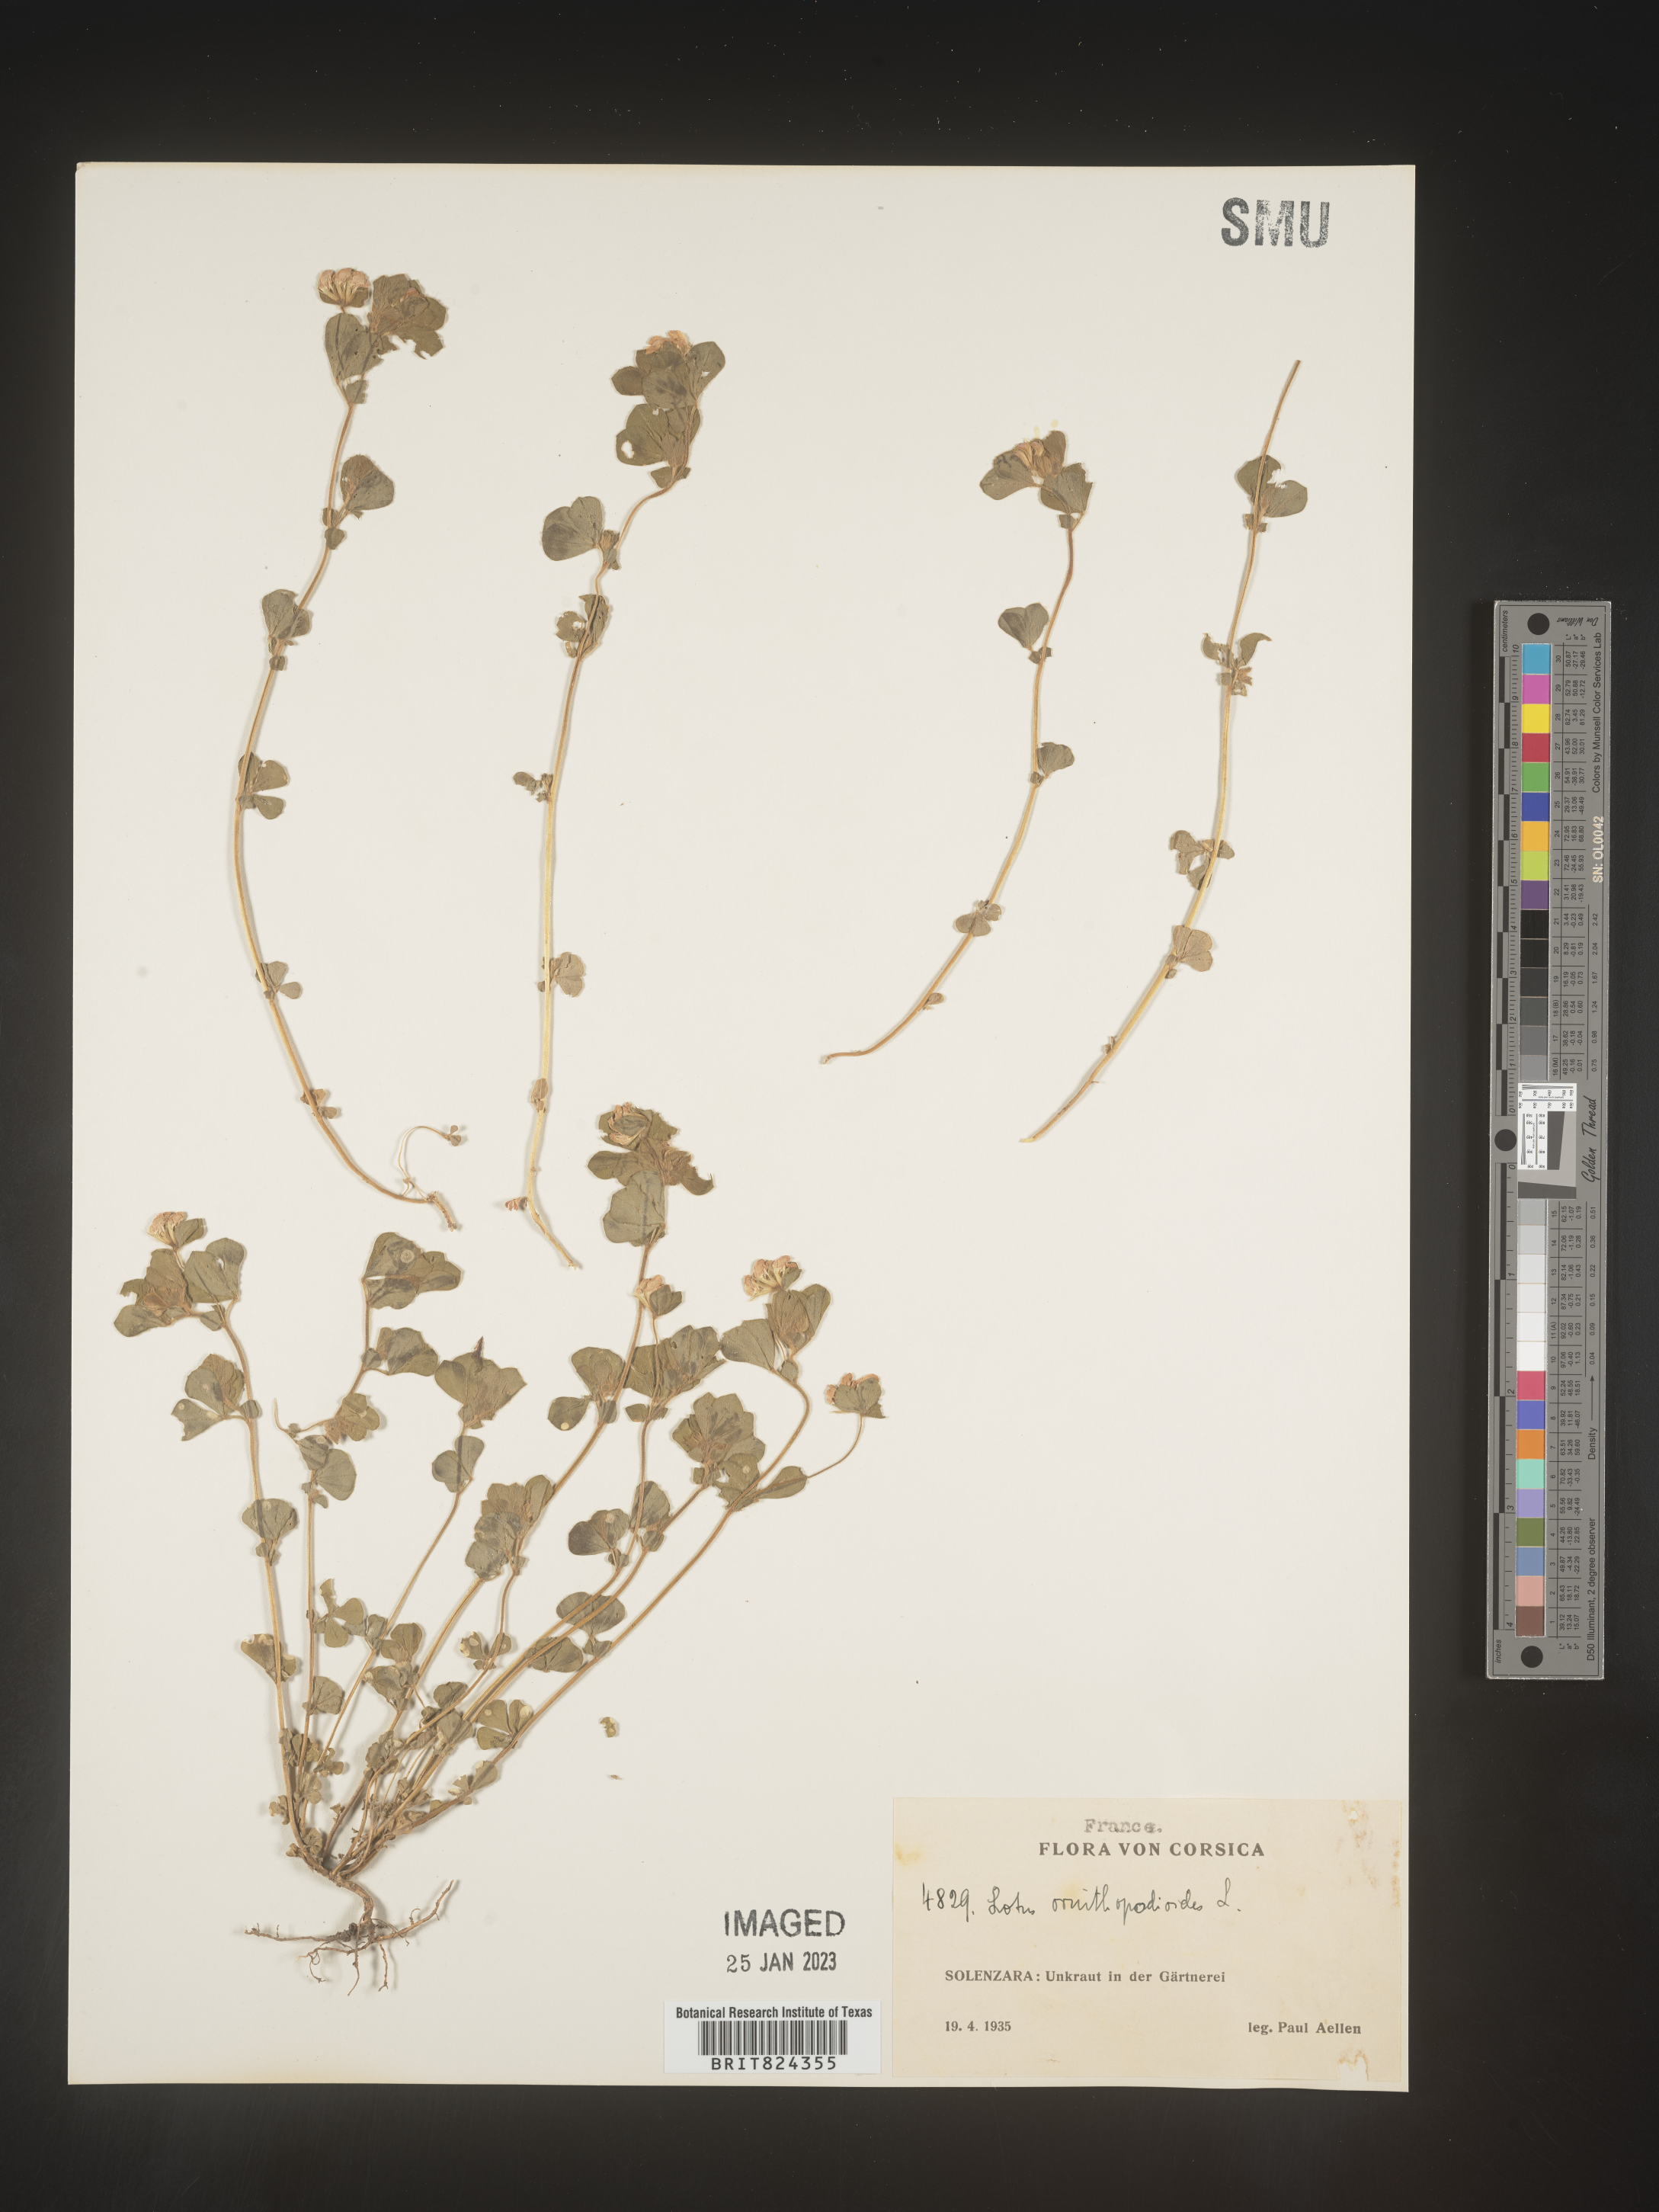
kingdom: Plantae
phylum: Tracheophyta
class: Magnoliopsida
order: Fabales
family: Fabaceae
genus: Lotus
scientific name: Lotus
